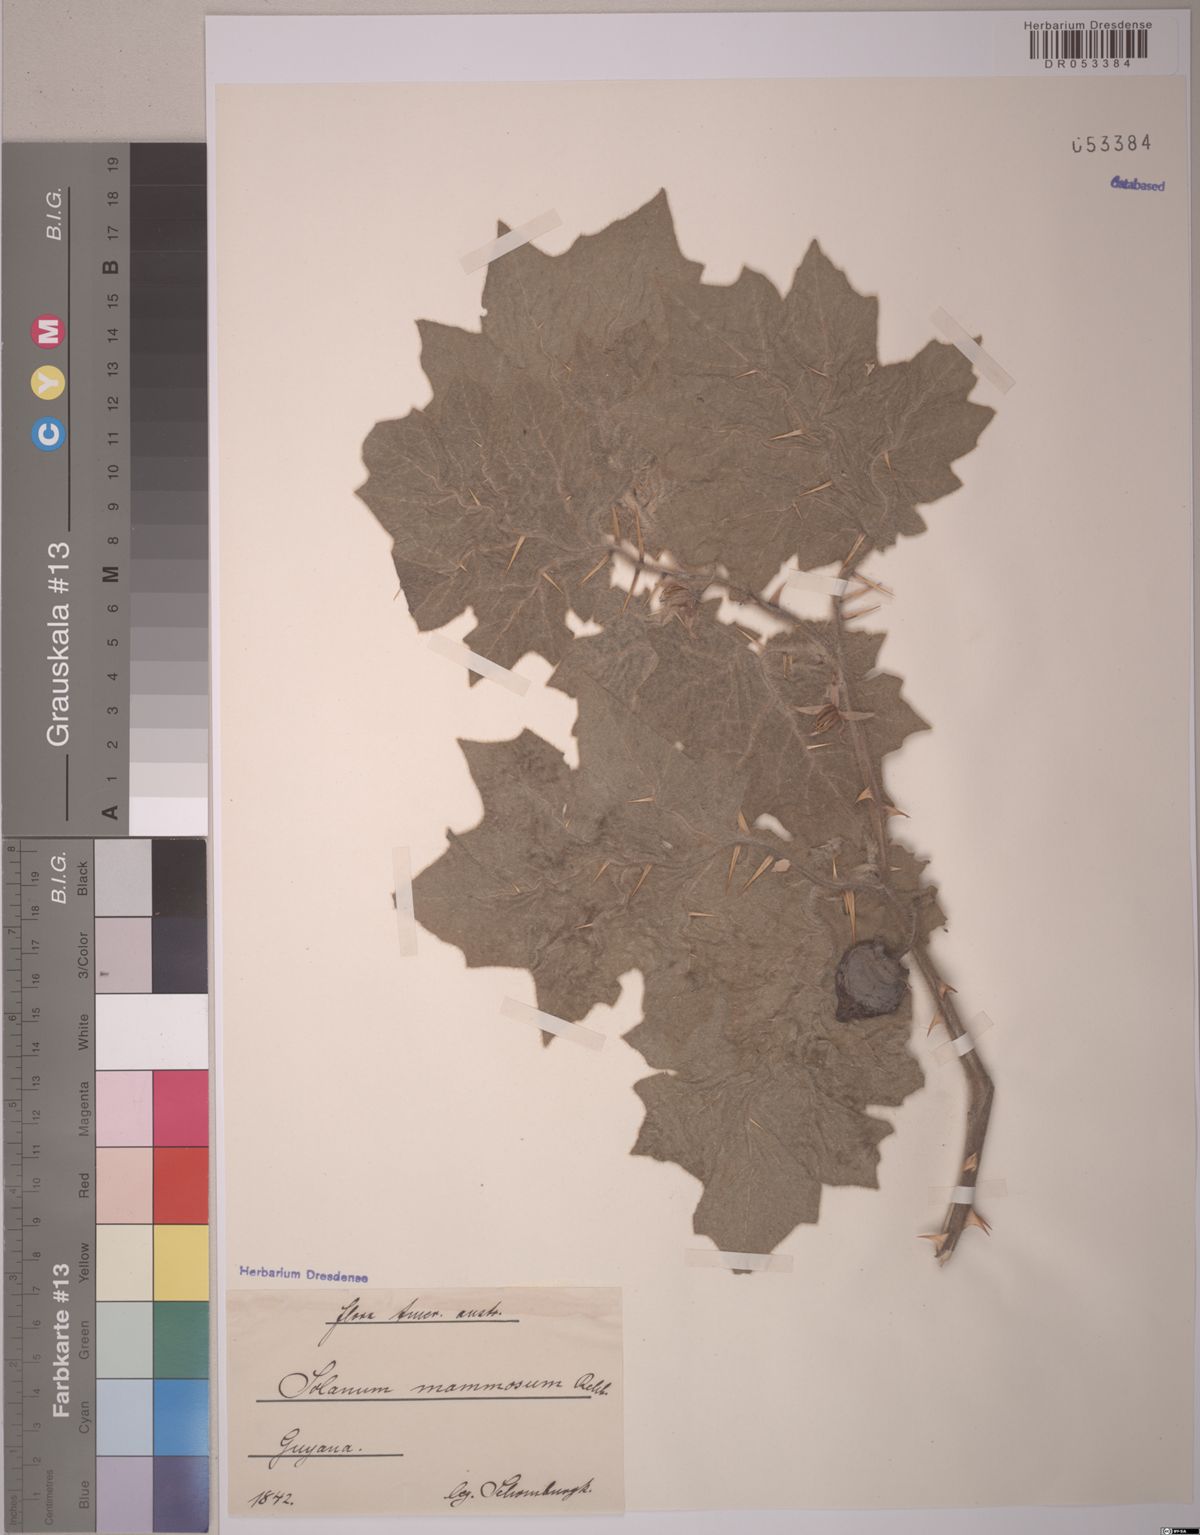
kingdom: Plantae
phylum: Tracheophyta
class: Magnoliopsida
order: Solanales
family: Solanaceae
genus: Solanum
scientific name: Solanum mammosum
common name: Nipple fruit
